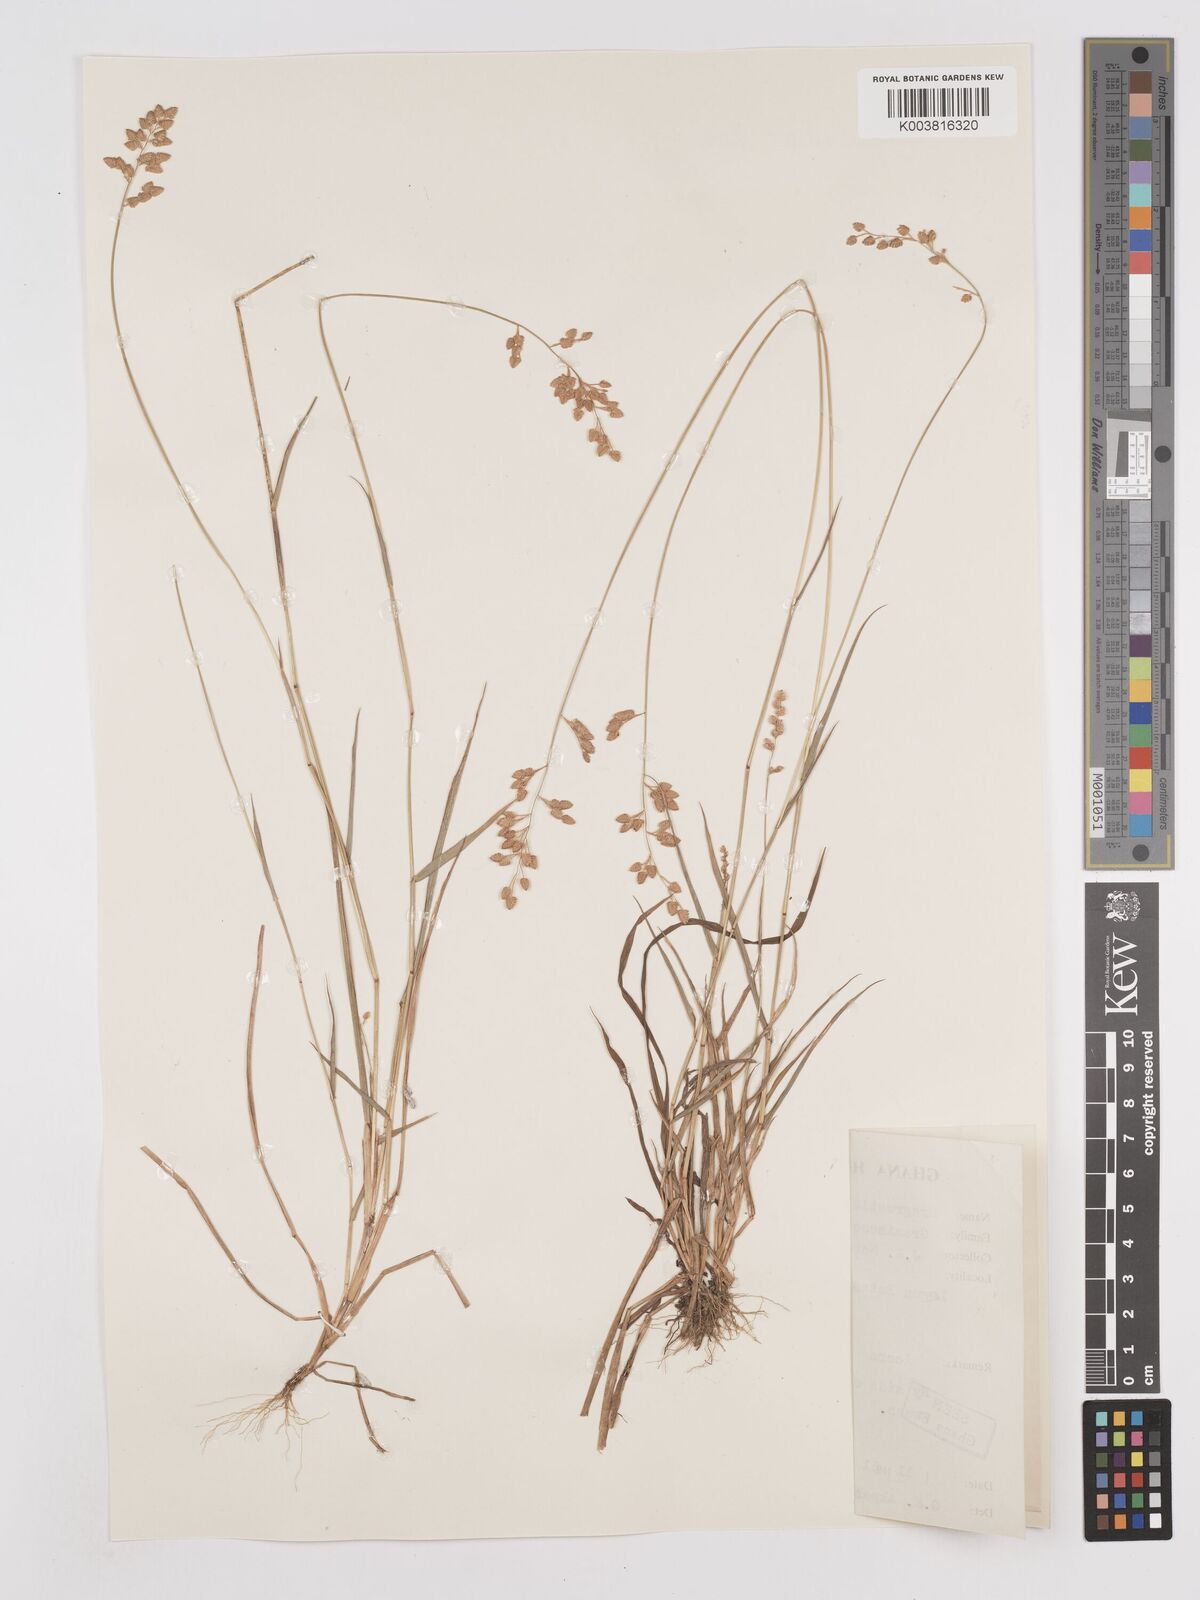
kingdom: Plantae
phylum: Tracheophyta
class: Liliopsida
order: Poales
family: Poaceae
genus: Eragrostis
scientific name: Eragrostis turgida
